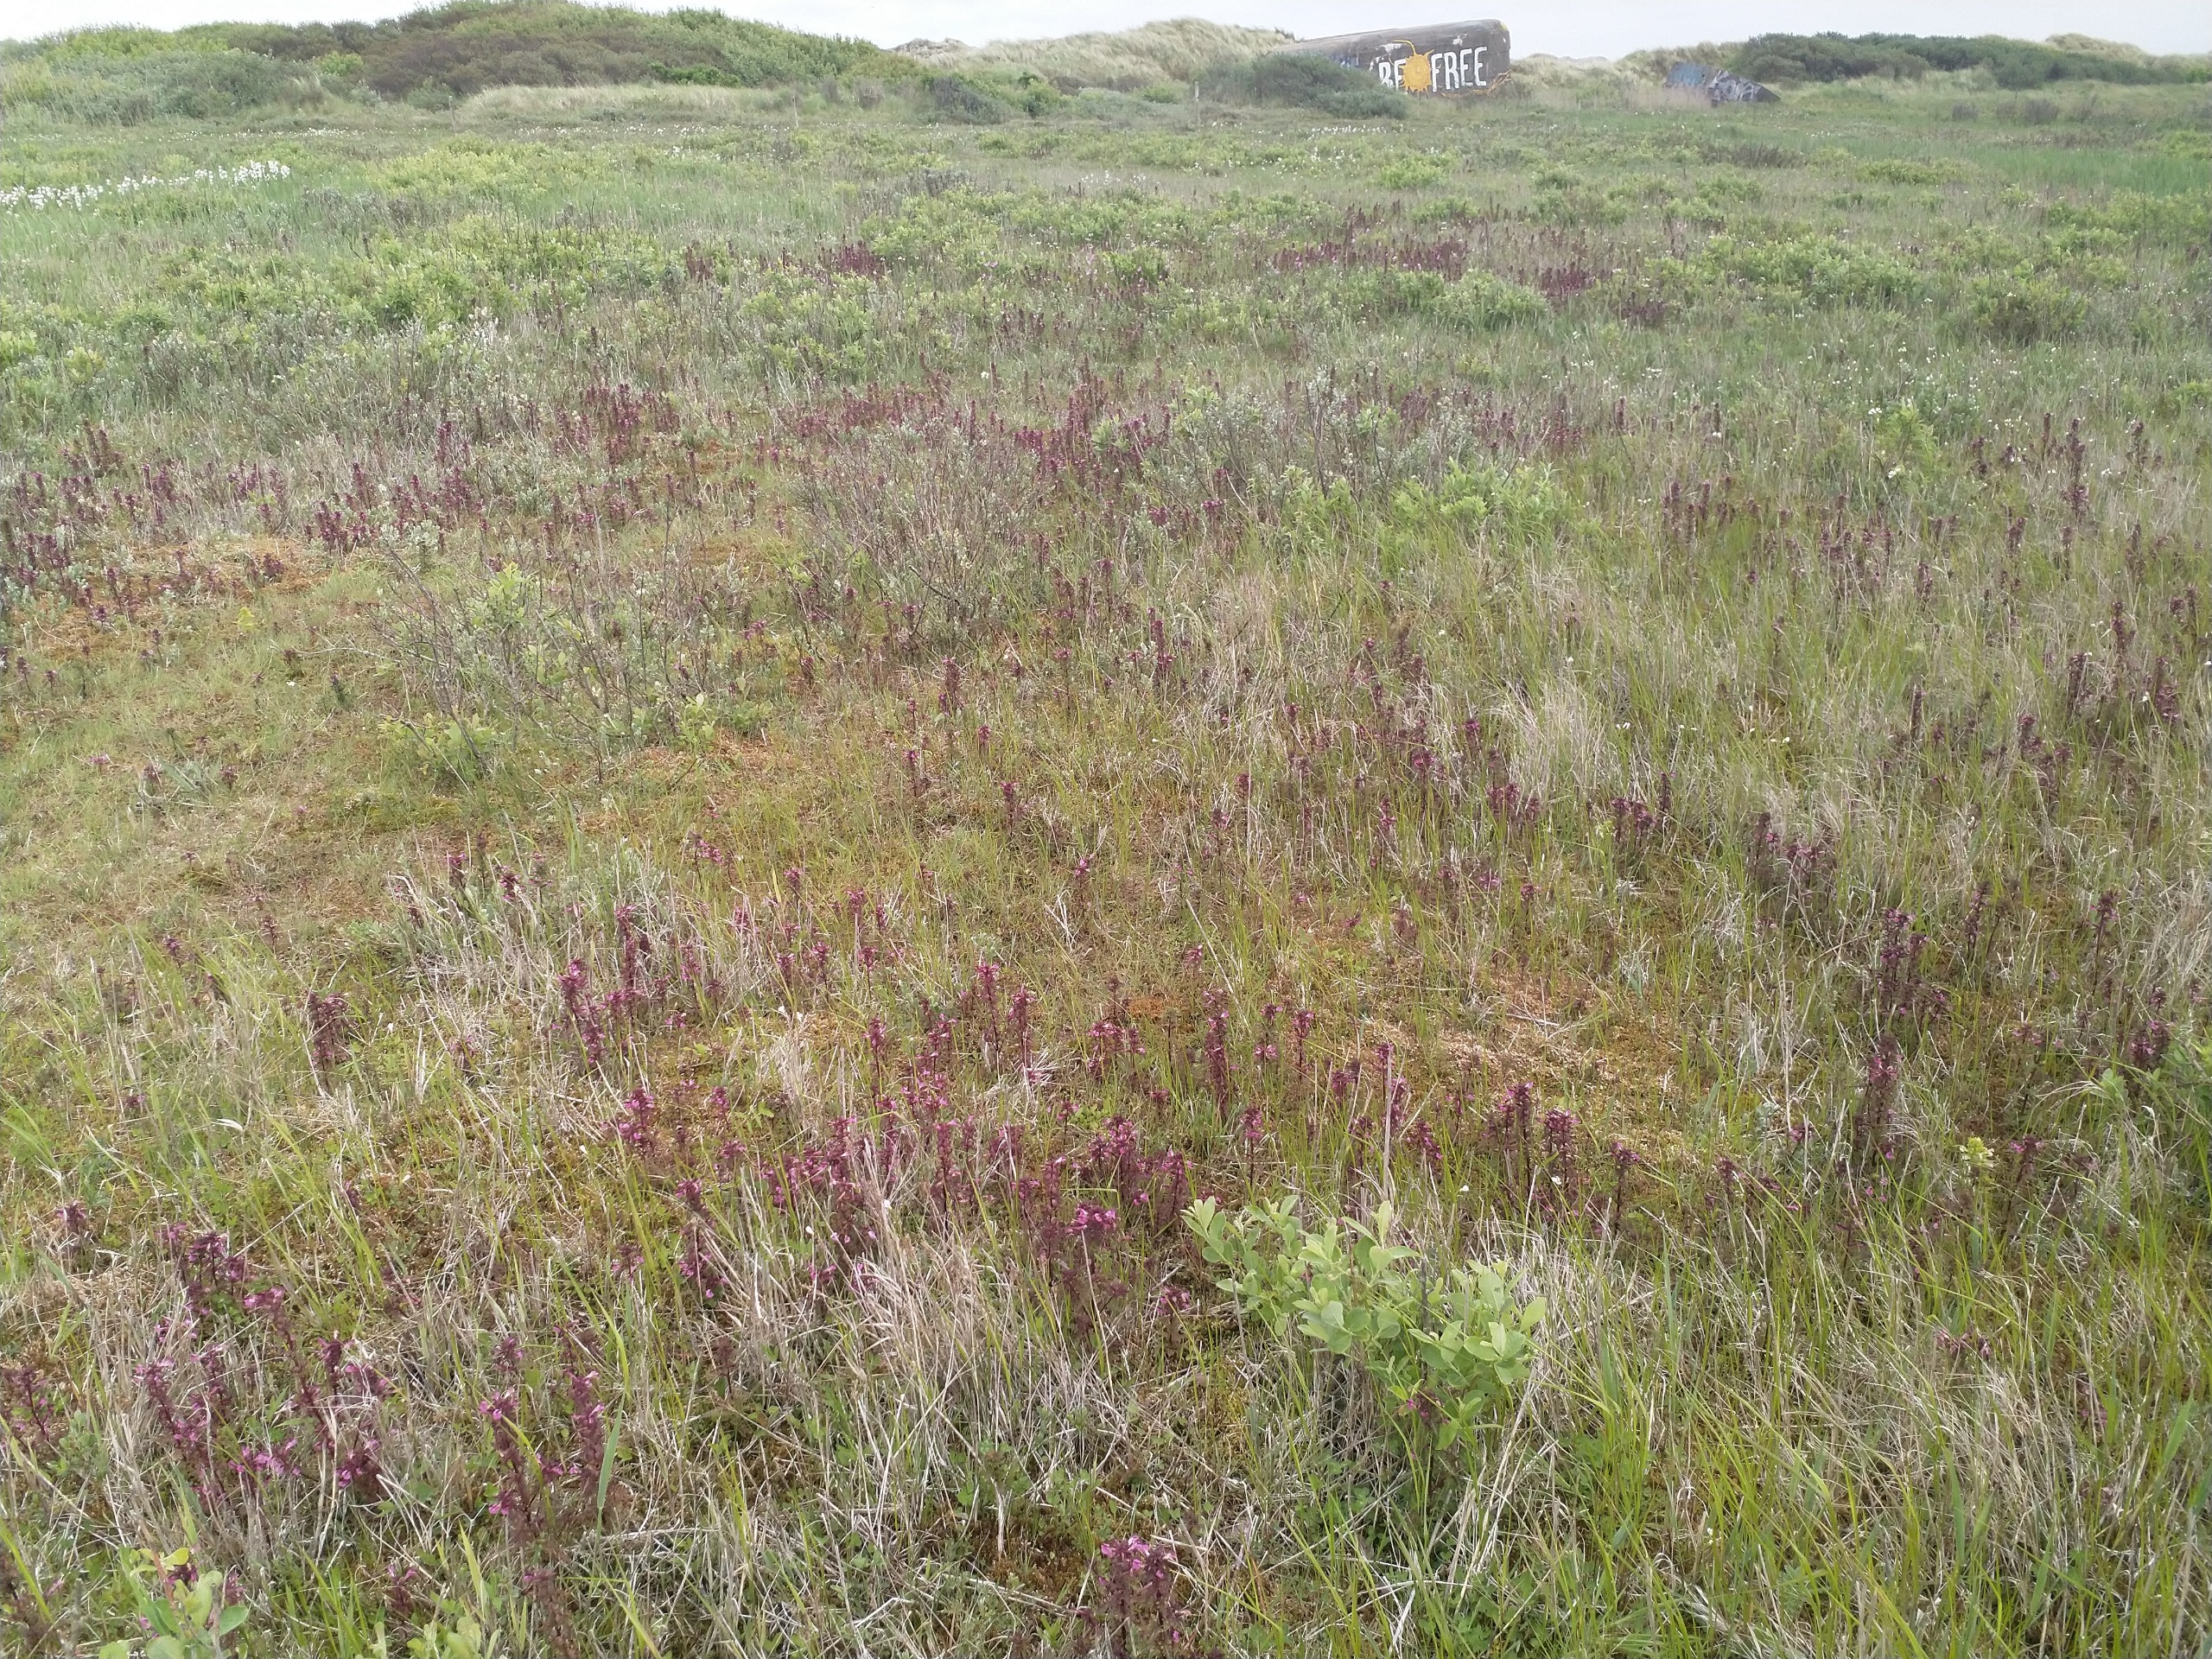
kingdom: Plantae
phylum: Tracheophyta
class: Magnoliopsida
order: Lamiales
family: Orobanchaceae
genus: Pedicularis
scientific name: Pedicularis palustris
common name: Eng-troldurt
